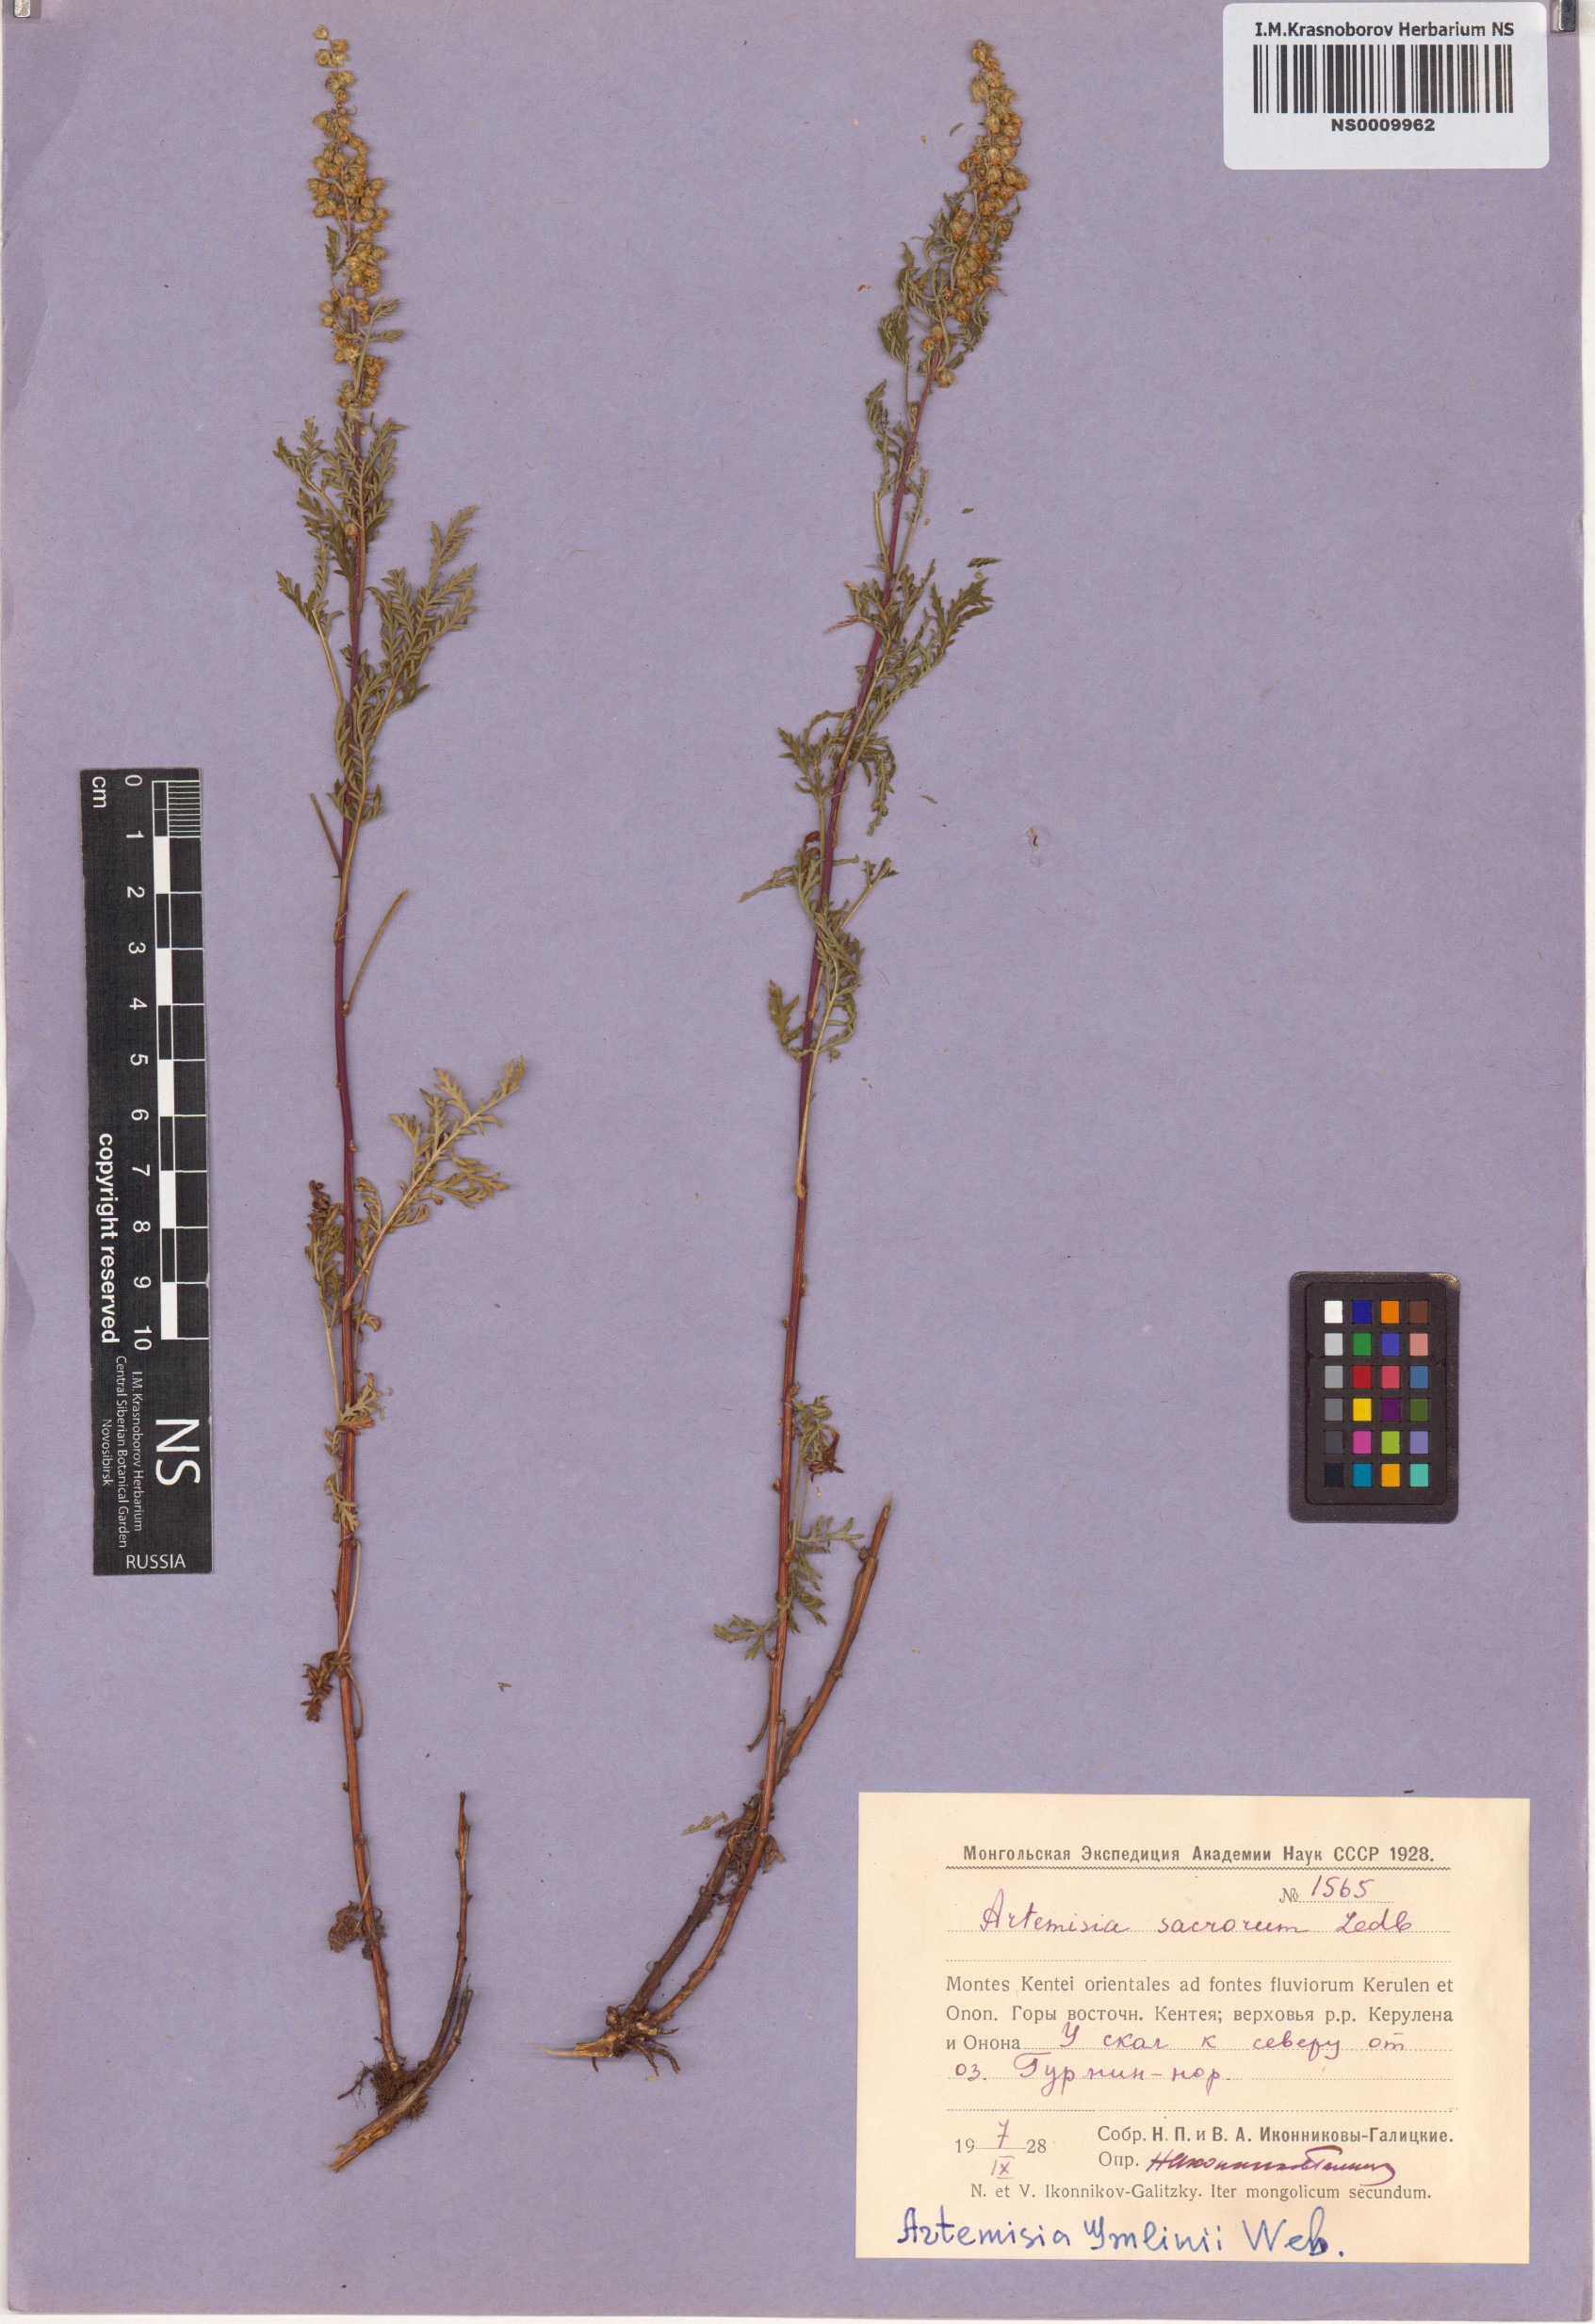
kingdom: Plantae
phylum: Tracheophyta
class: Magnoliopsida
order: Asterales
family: Asteraceae
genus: Artemisia
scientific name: Artemisia gmelinii
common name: Gmelin's wormwood
